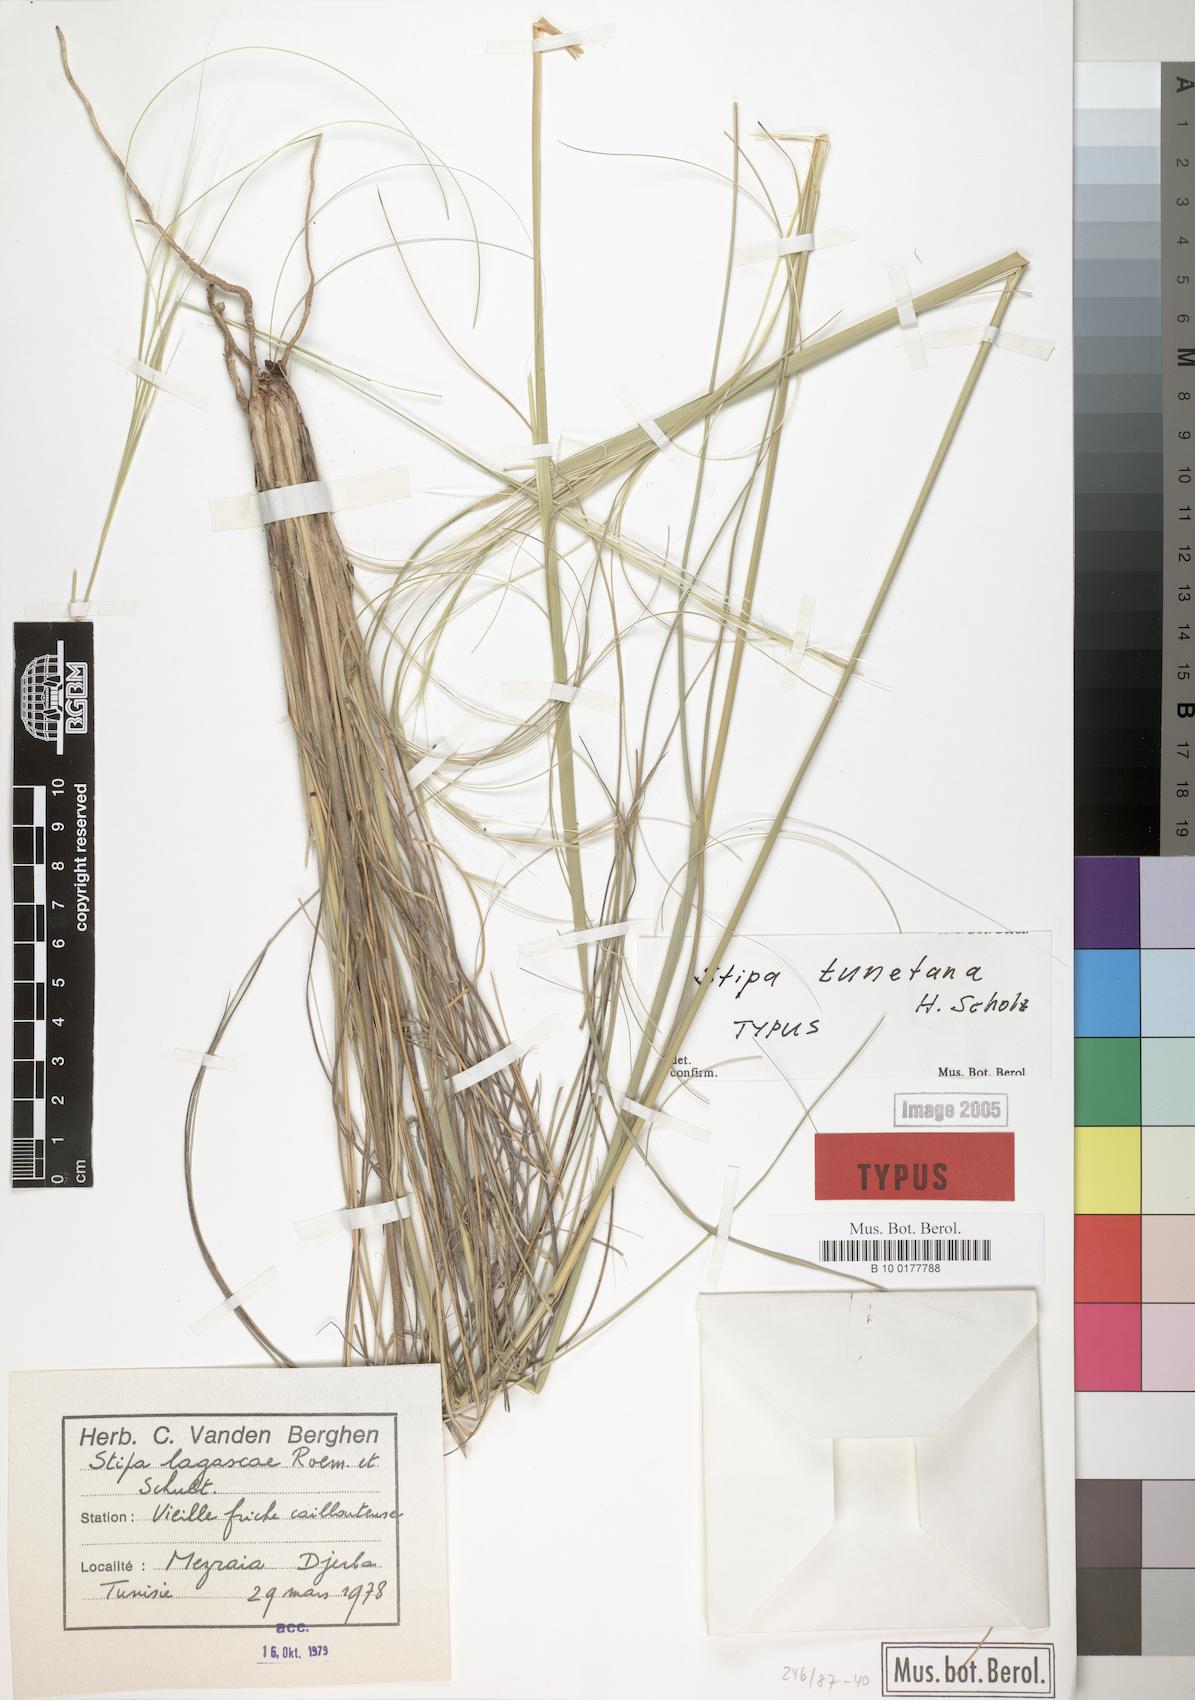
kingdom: Plantae
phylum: Tracheophyta
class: Liliopsida
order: Poales
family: Poaceae
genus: Stipa
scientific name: Stipa letourneuxii
